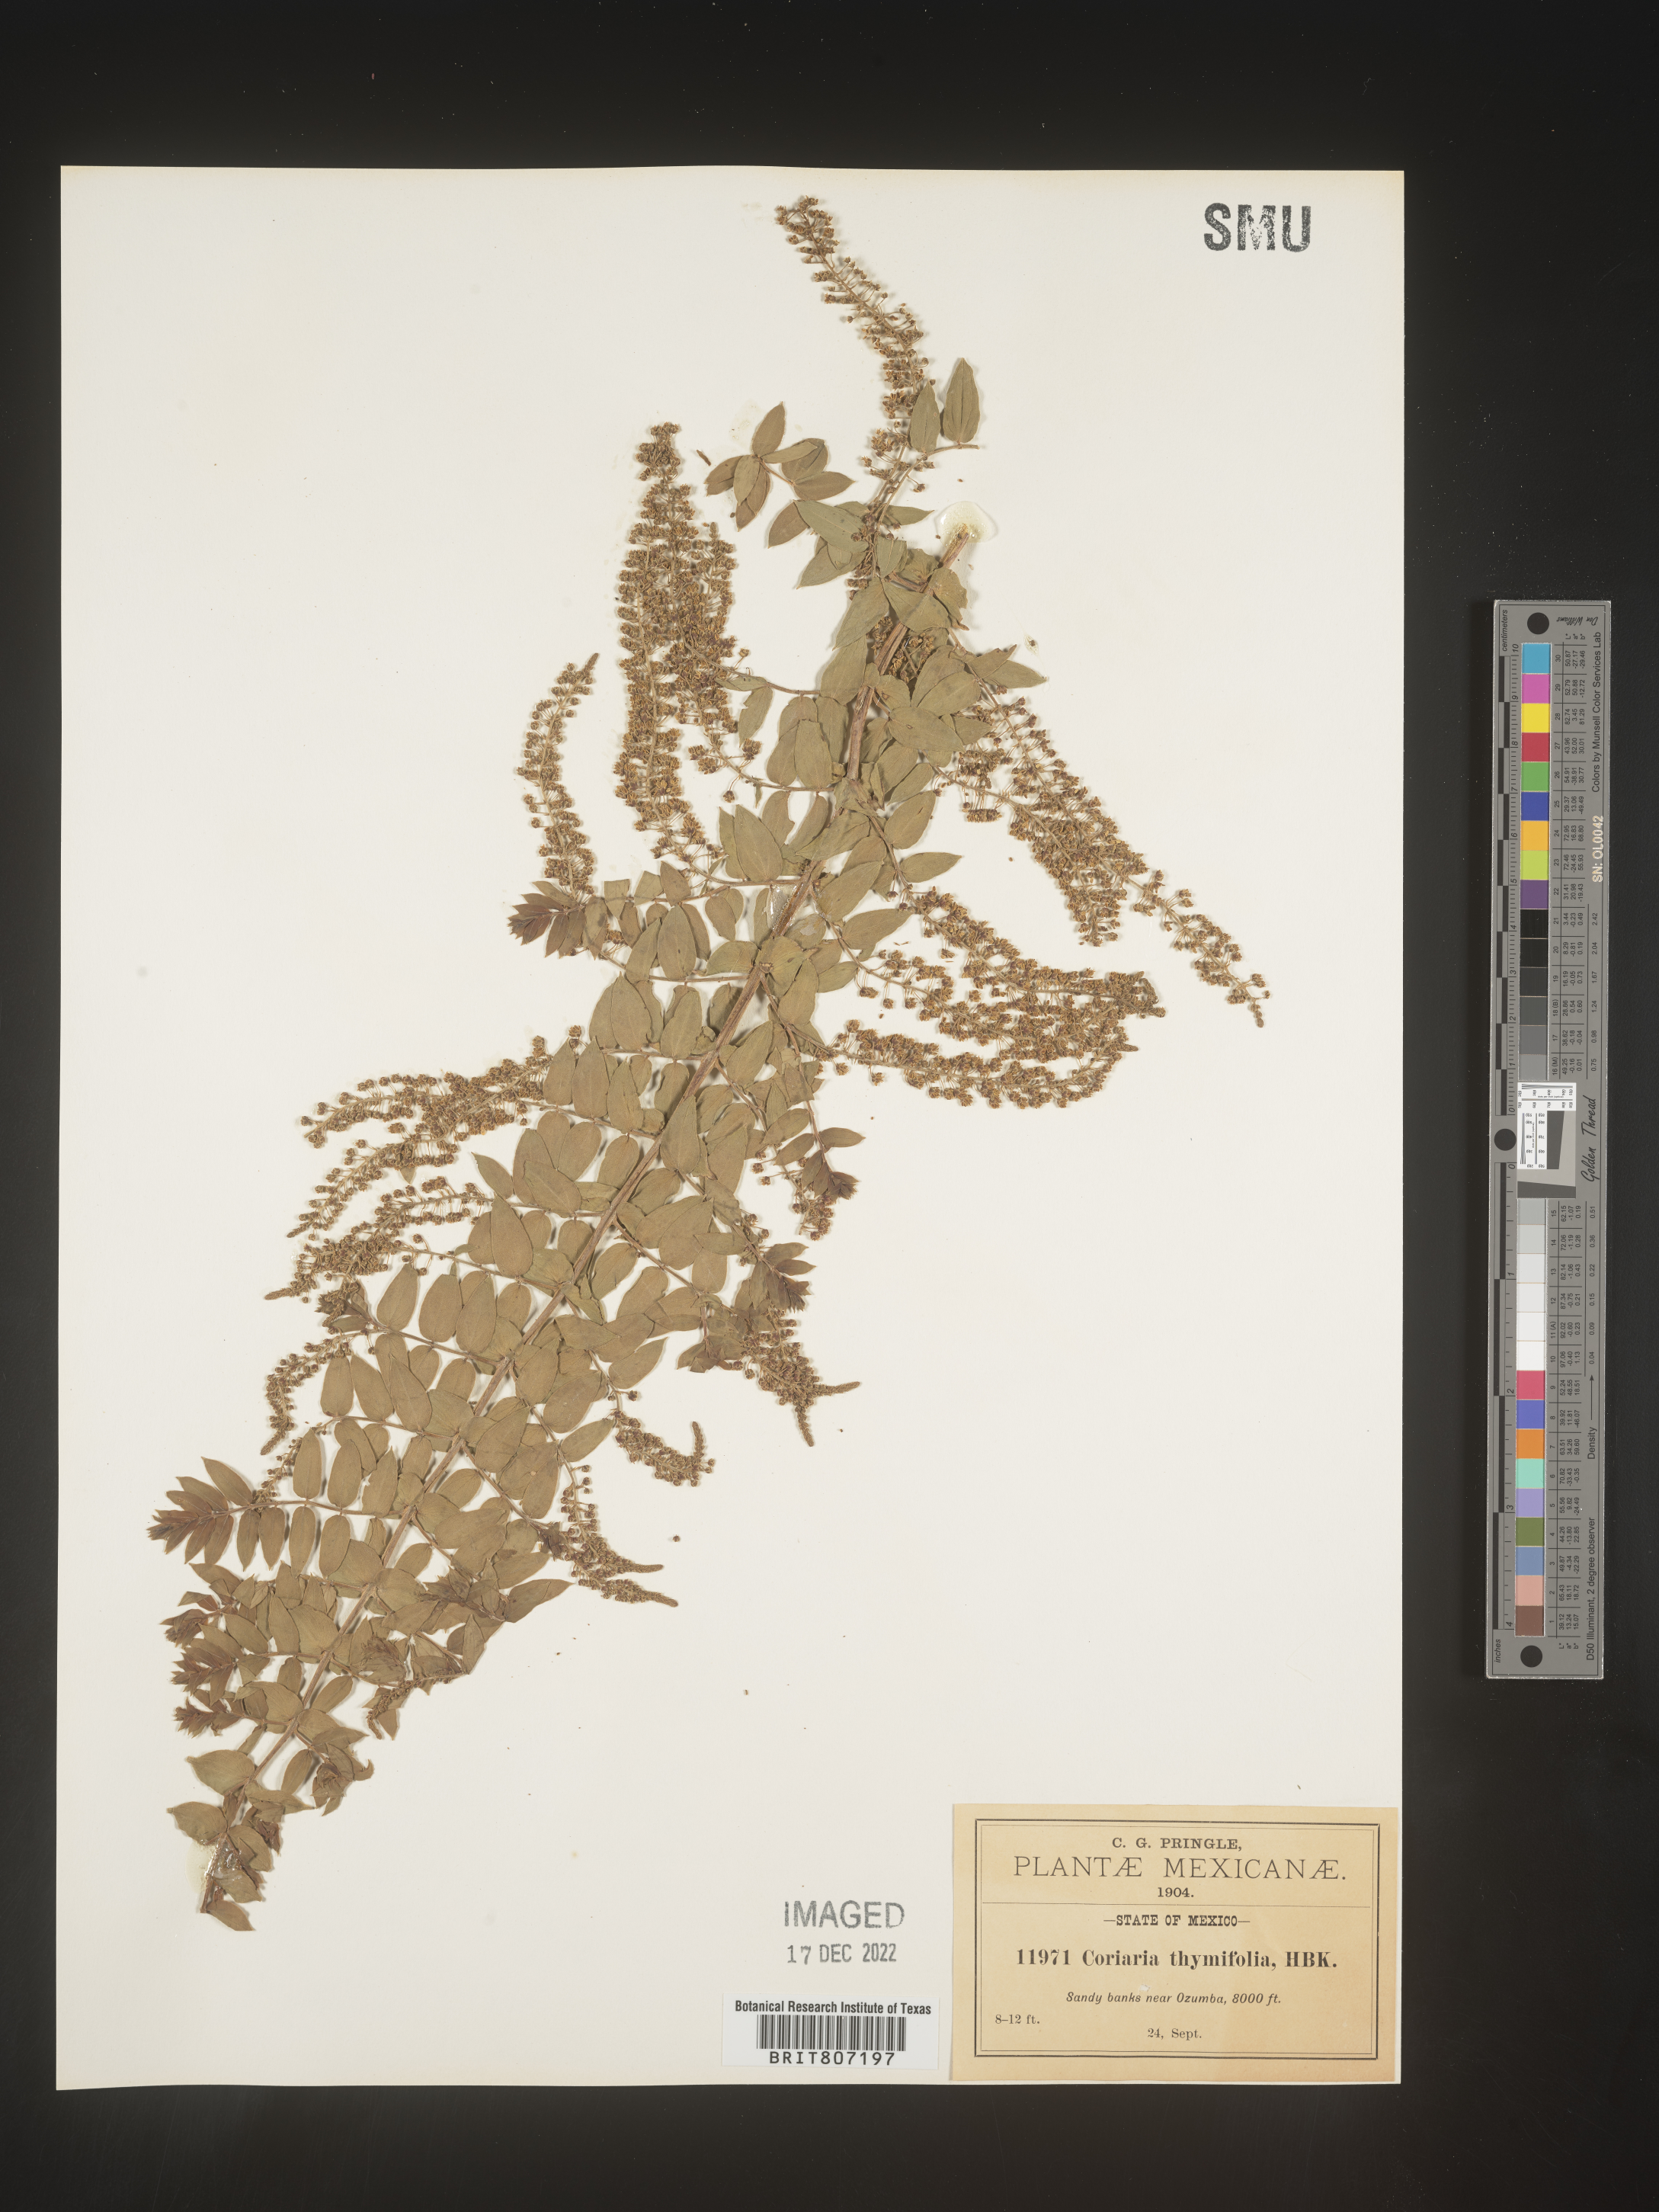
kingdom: Plantae
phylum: Tracheophyta
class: Magnoliopsida
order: Cucurbitales
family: Coriariaceae
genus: Coriaria
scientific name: Coriaria
